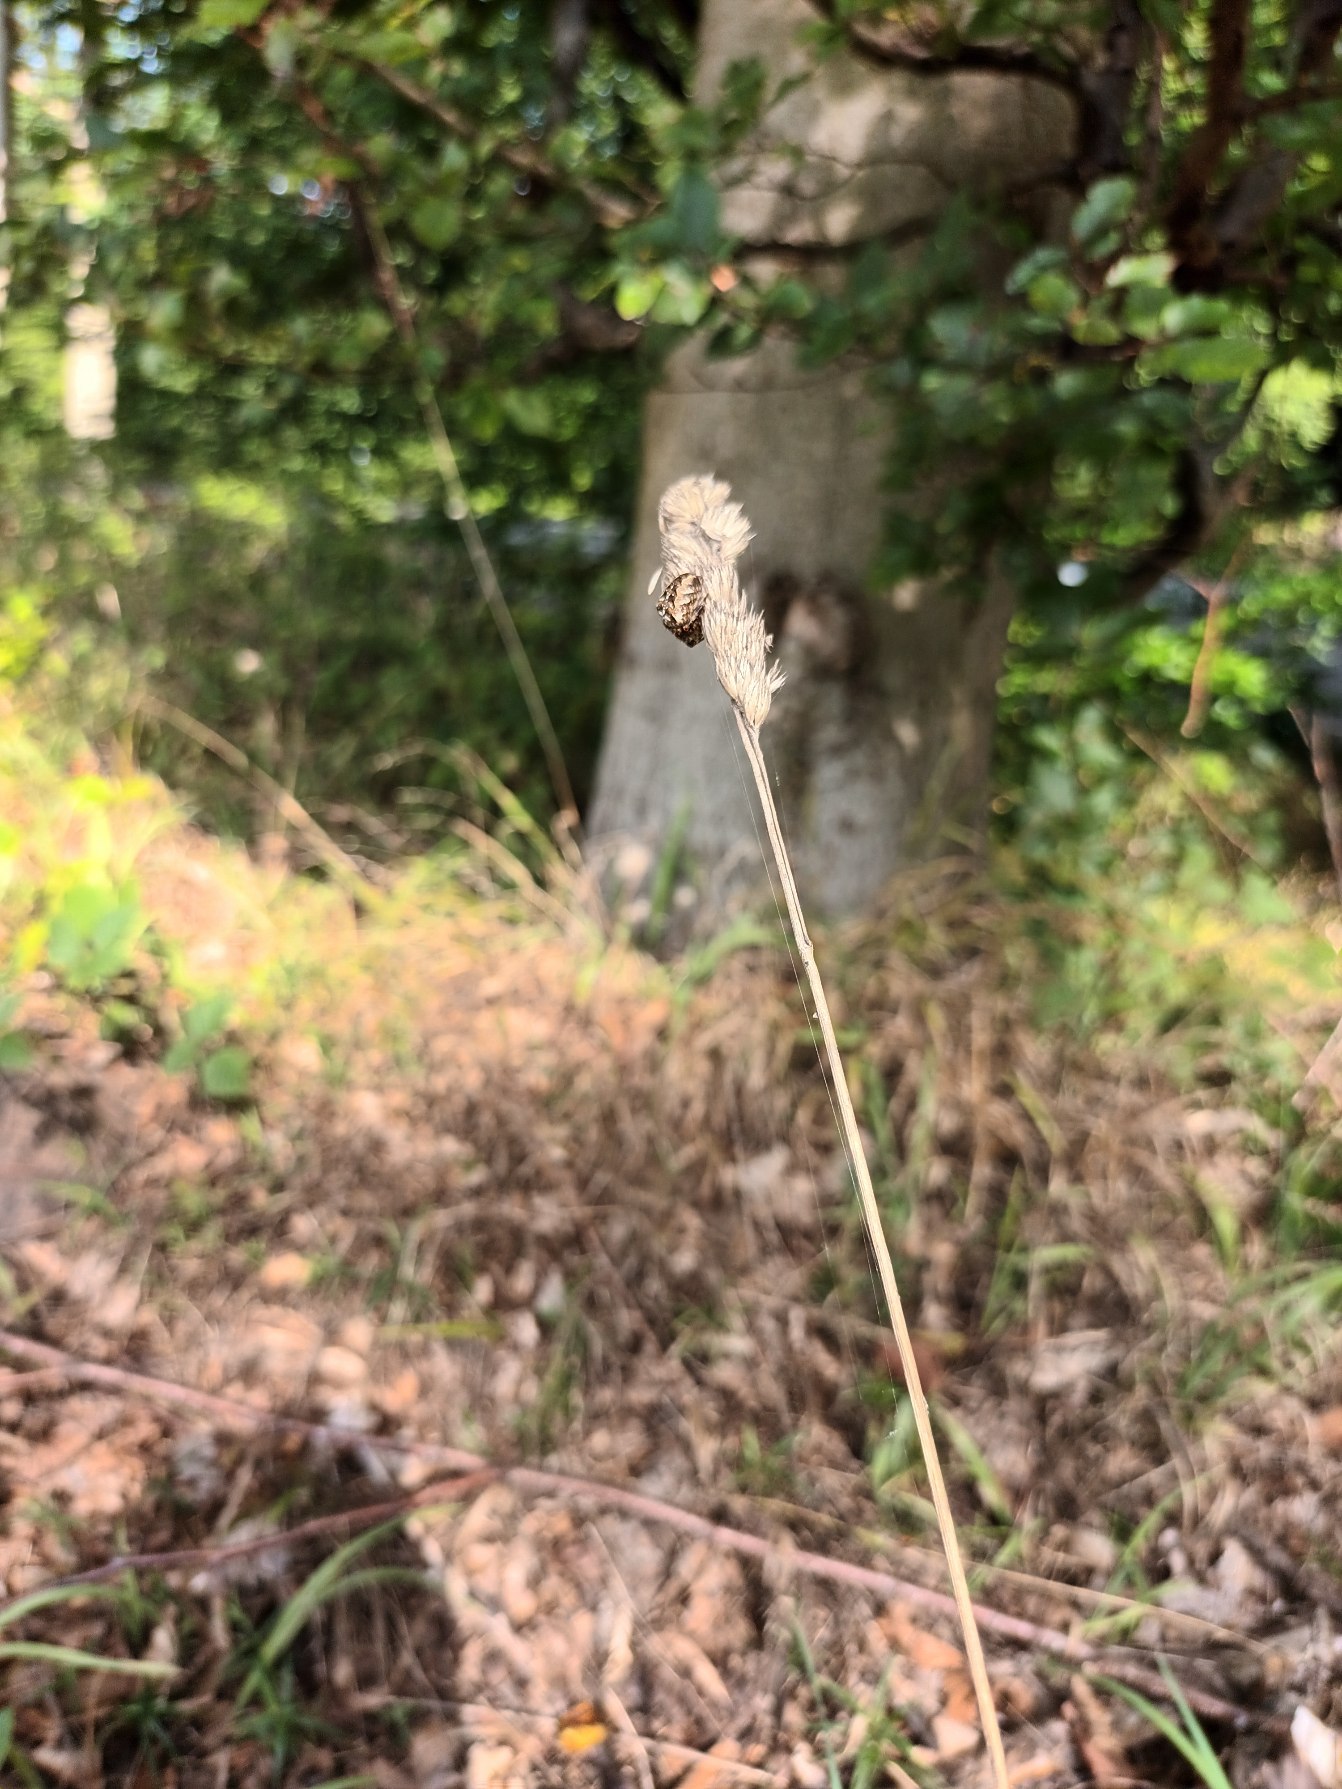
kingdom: Plantae
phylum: Tracheophyta
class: Liliopsida
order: Poales
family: Poaceae
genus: Dactylis
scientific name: Dactylis glomerata
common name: Almindelig hundegræs
